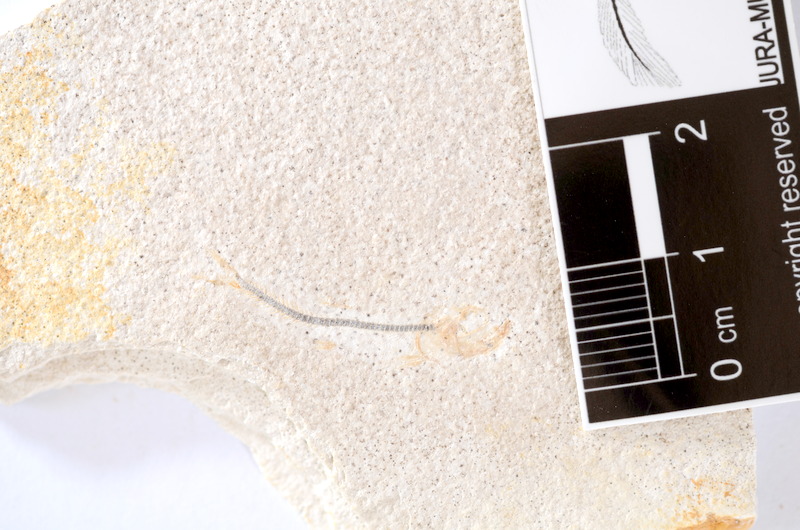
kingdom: Animalia
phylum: Chordata
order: Salmoniformes
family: Orthogonikleithridae
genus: Orthogonikleithrus
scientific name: Orthogonikleithrus hoelli
